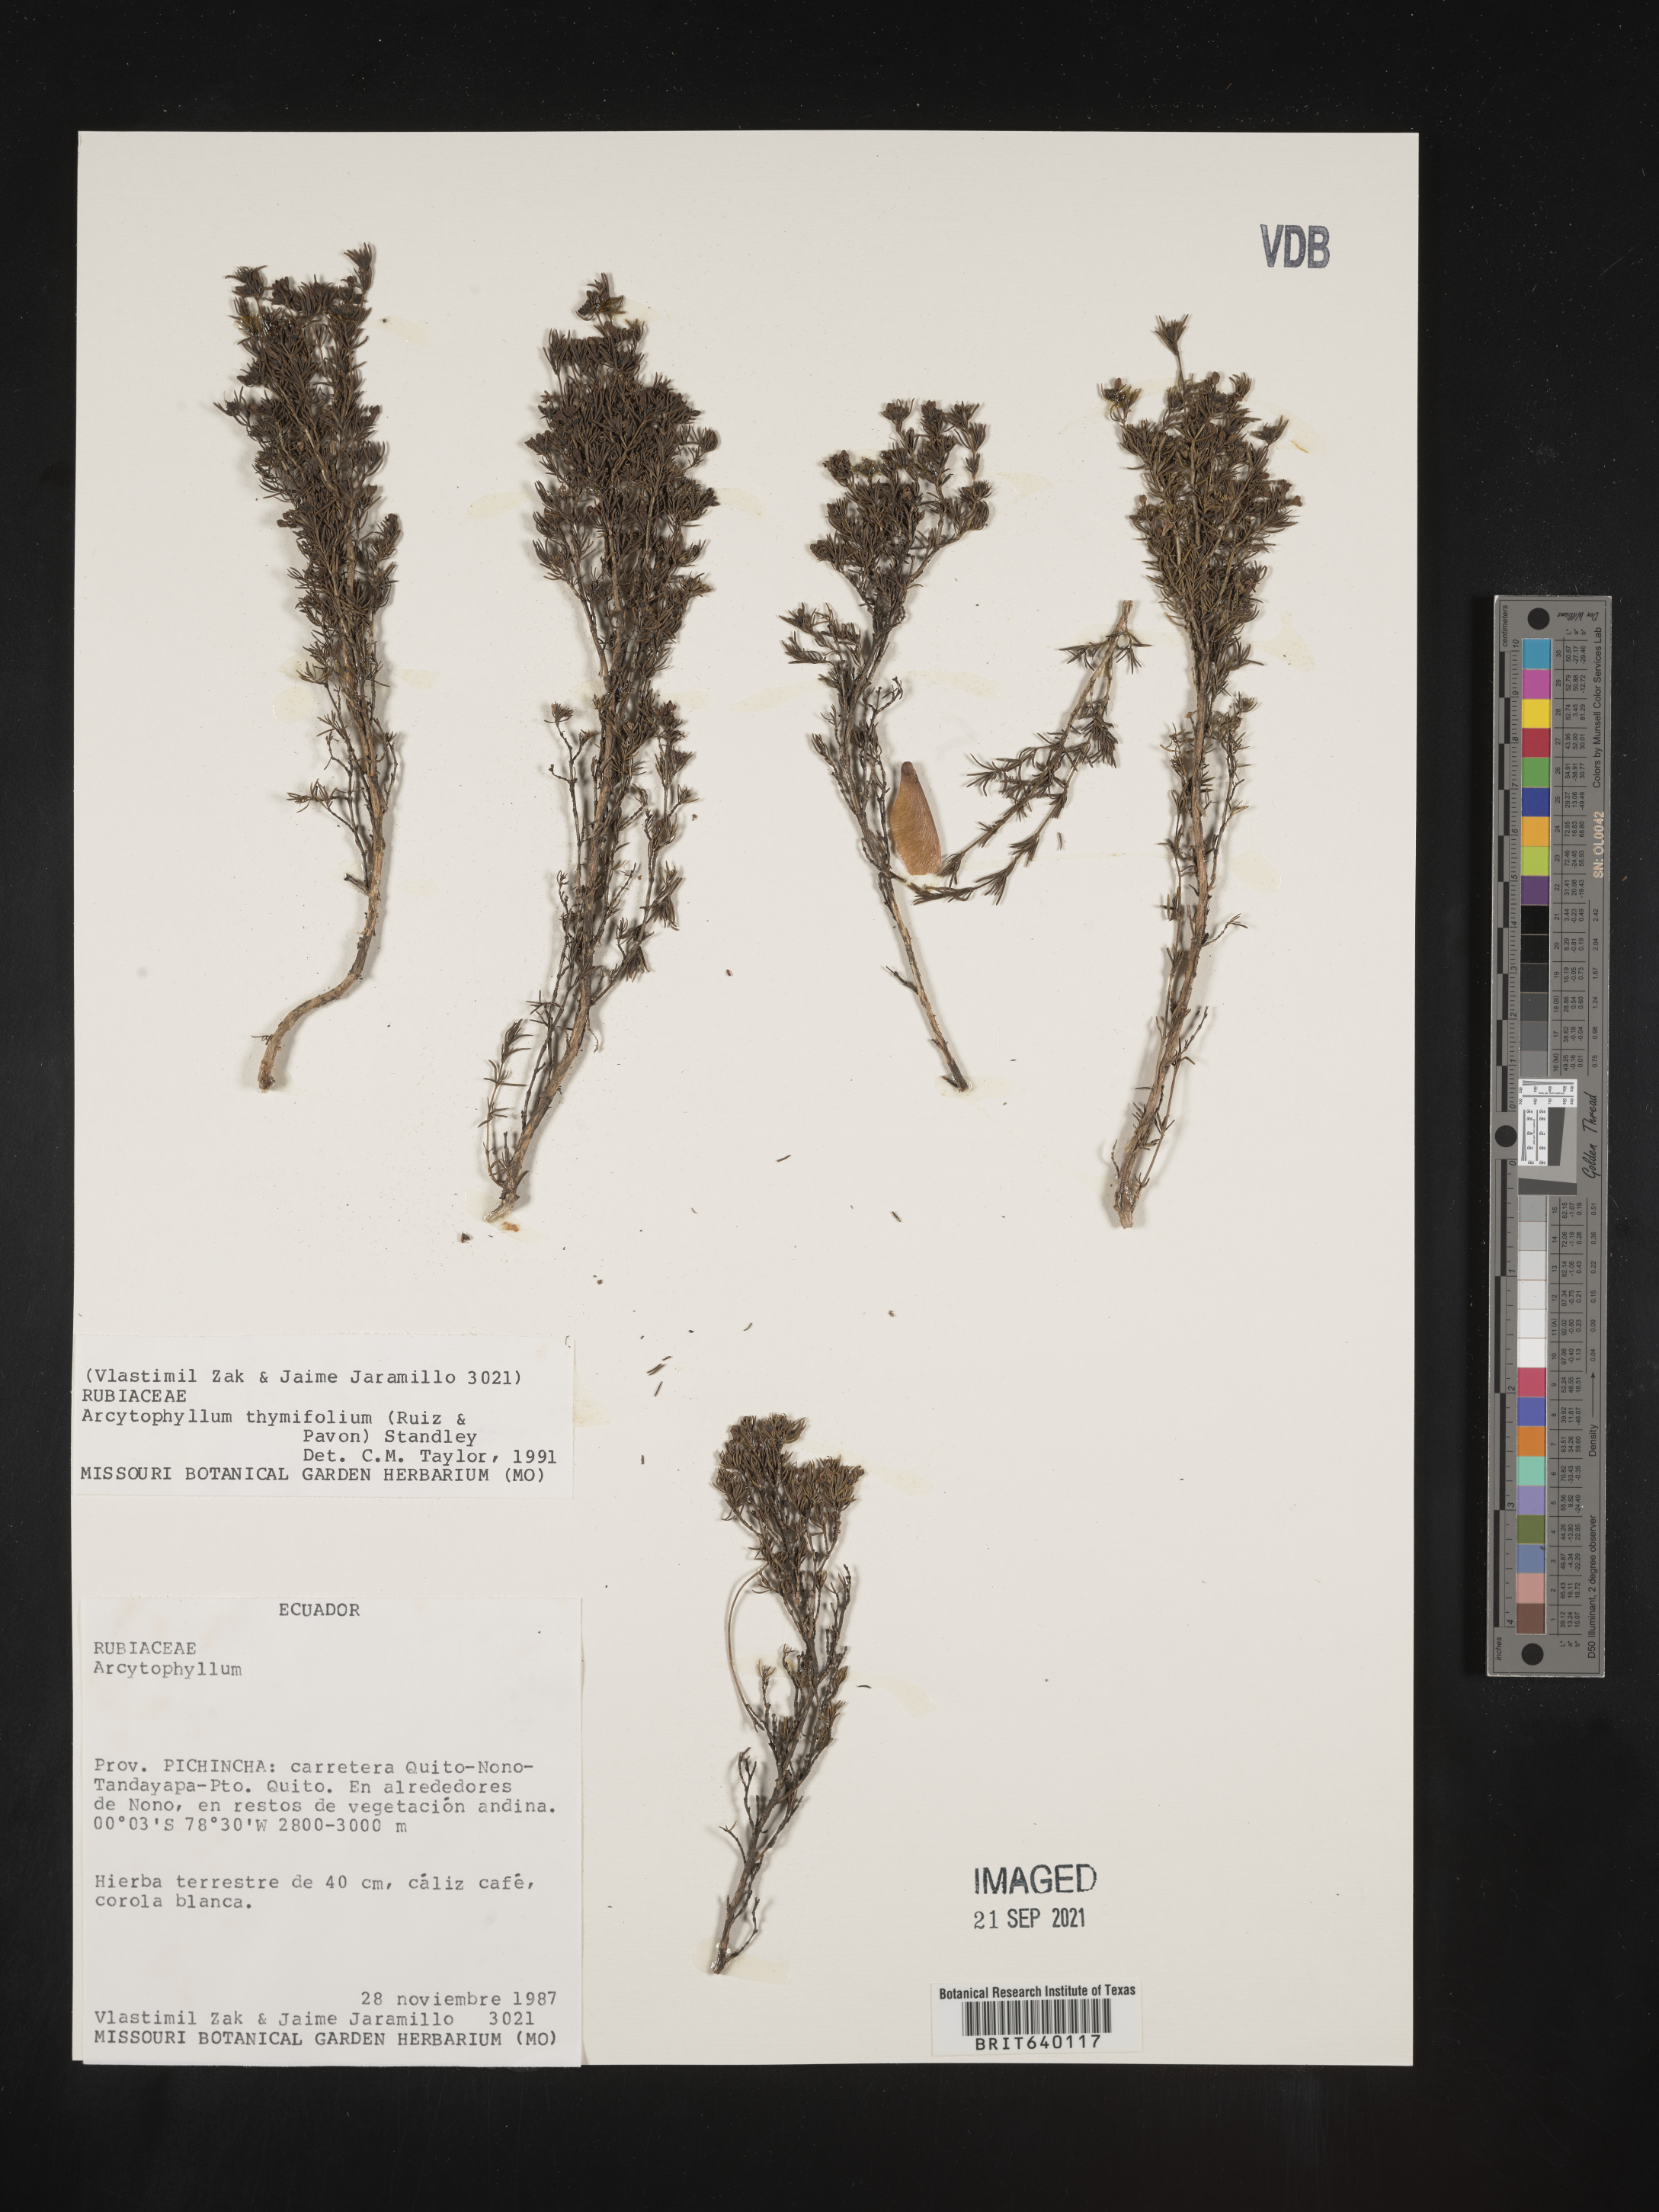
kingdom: Plantae
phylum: Tracheophyta
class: Magnoliopsida
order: Gentianales
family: Rubiaceae
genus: Arcytophyllum
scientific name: Arcytophyllum
